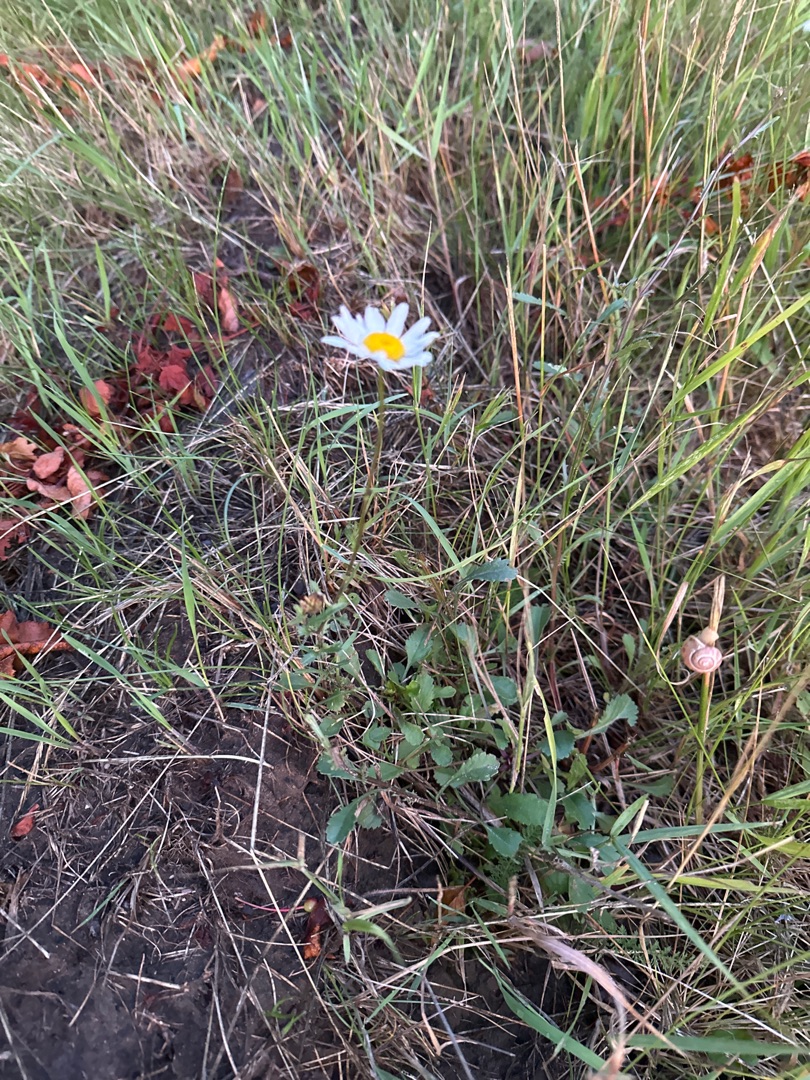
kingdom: Plantae
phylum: Tracheophyta
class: Magnoliopsida
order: Asterales
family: Asteraceae
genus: Leucanthemum
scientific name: Leucanthemum vulgare
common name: Hvid okseøje
